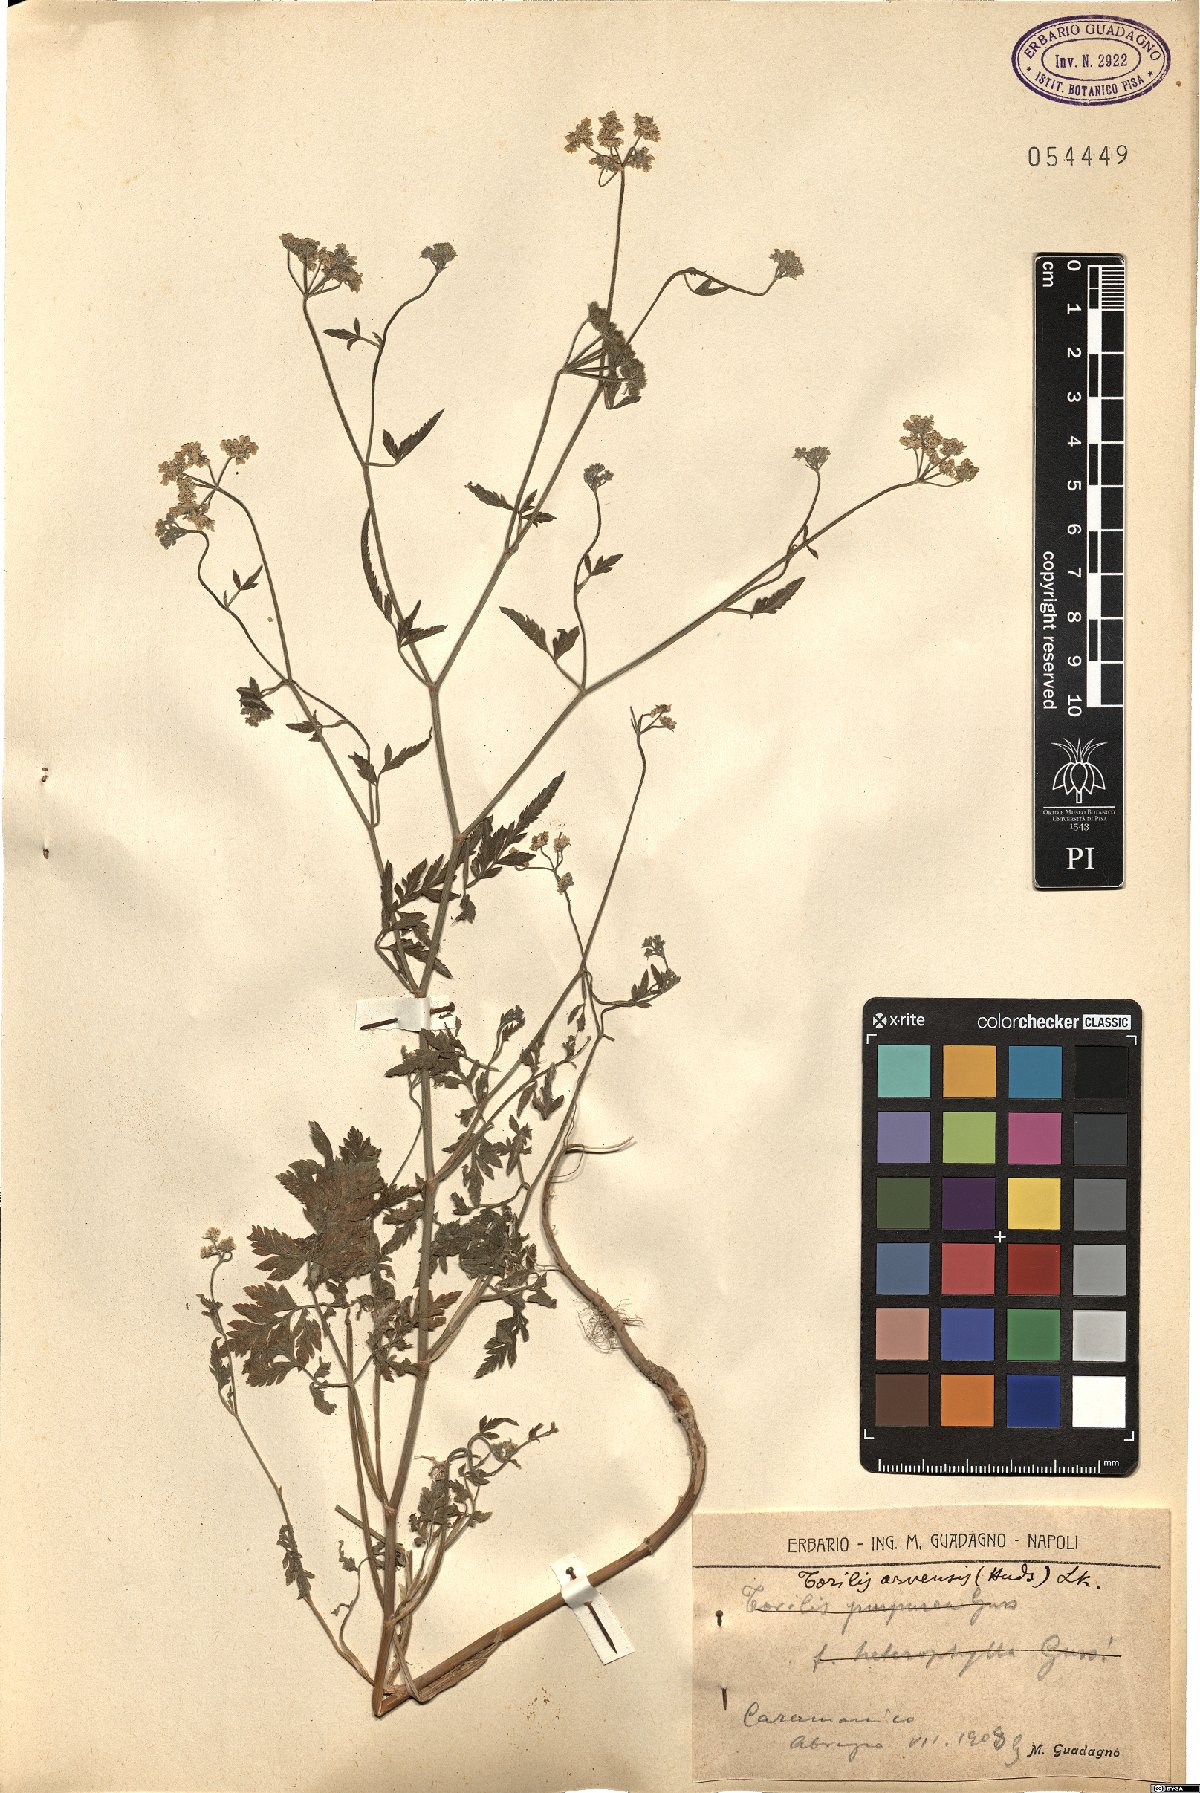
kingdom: Plantae
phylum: Tracheophyta
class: Magnoliopsida
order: Apiales
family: Apiaceae
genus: Torilis
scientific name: Torilis arvensis
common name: Spreading hedge-parsley
